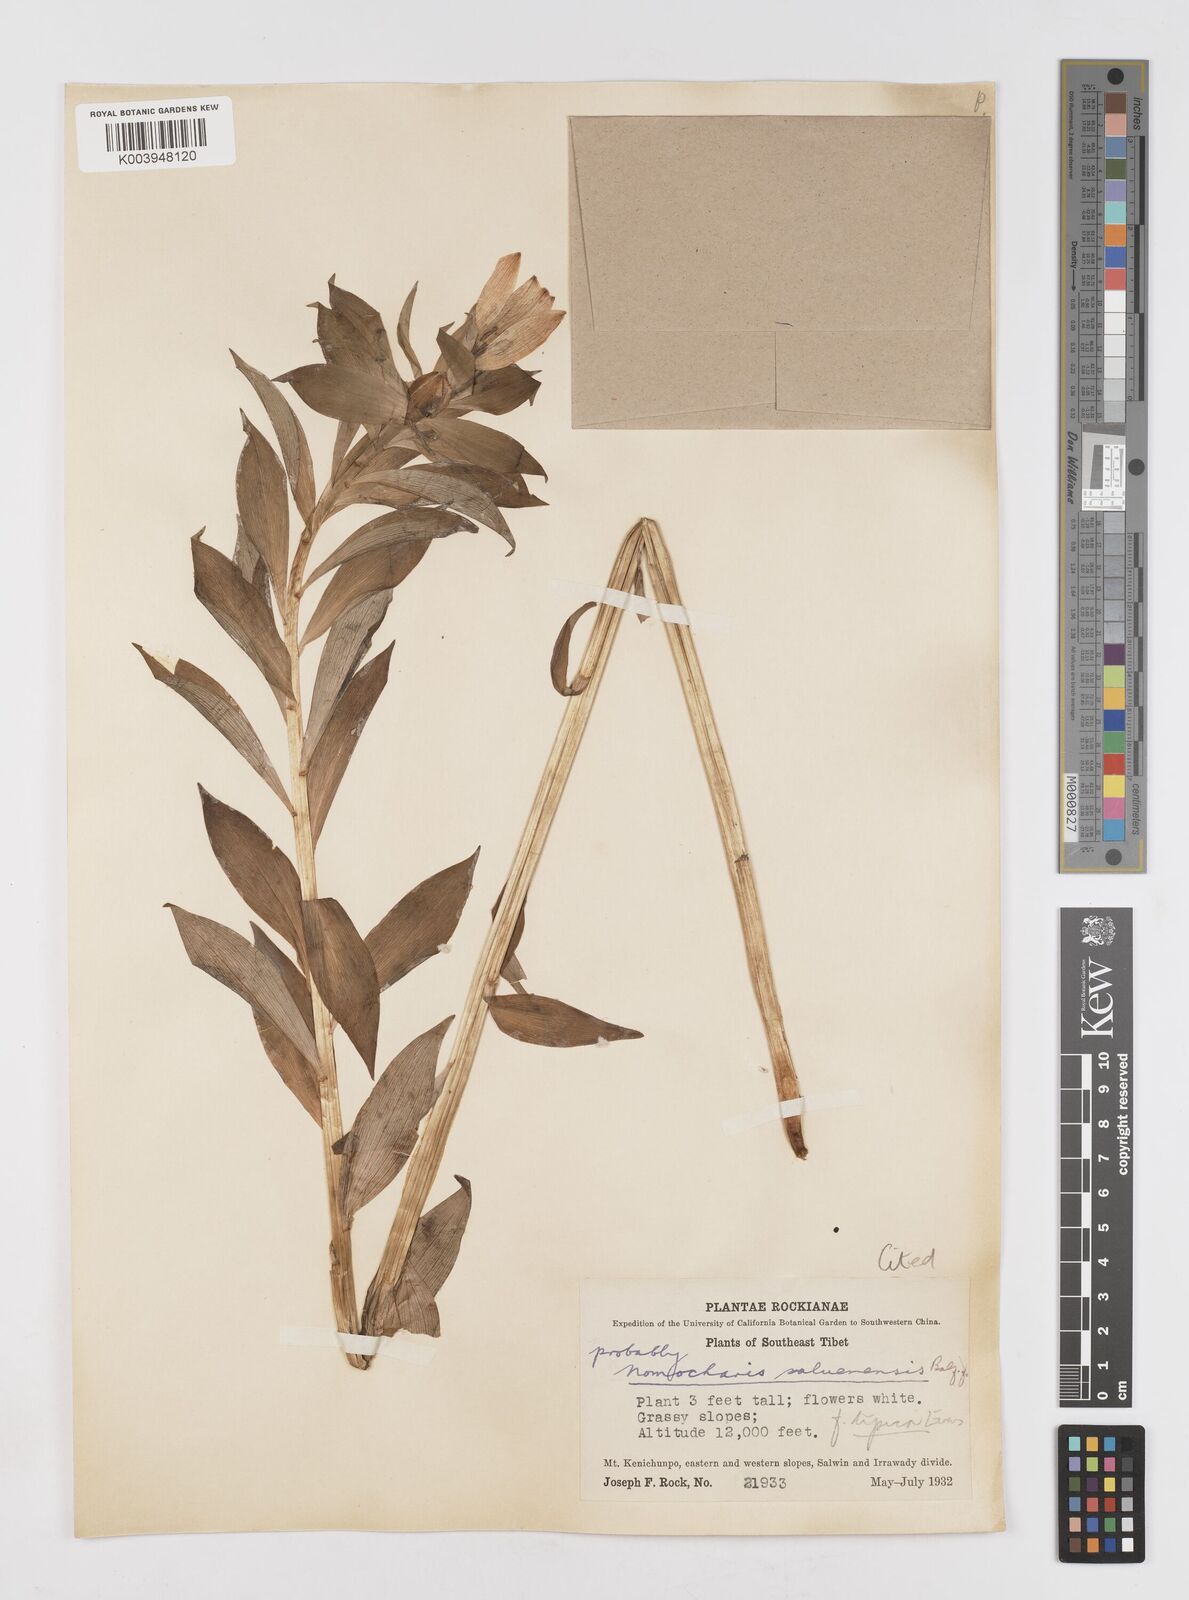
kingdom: Plantae
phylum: Tracheophyta
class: Liliopsida
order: Liliales
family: Liliaceae
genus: Lilium
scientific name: Lilium saluenense
